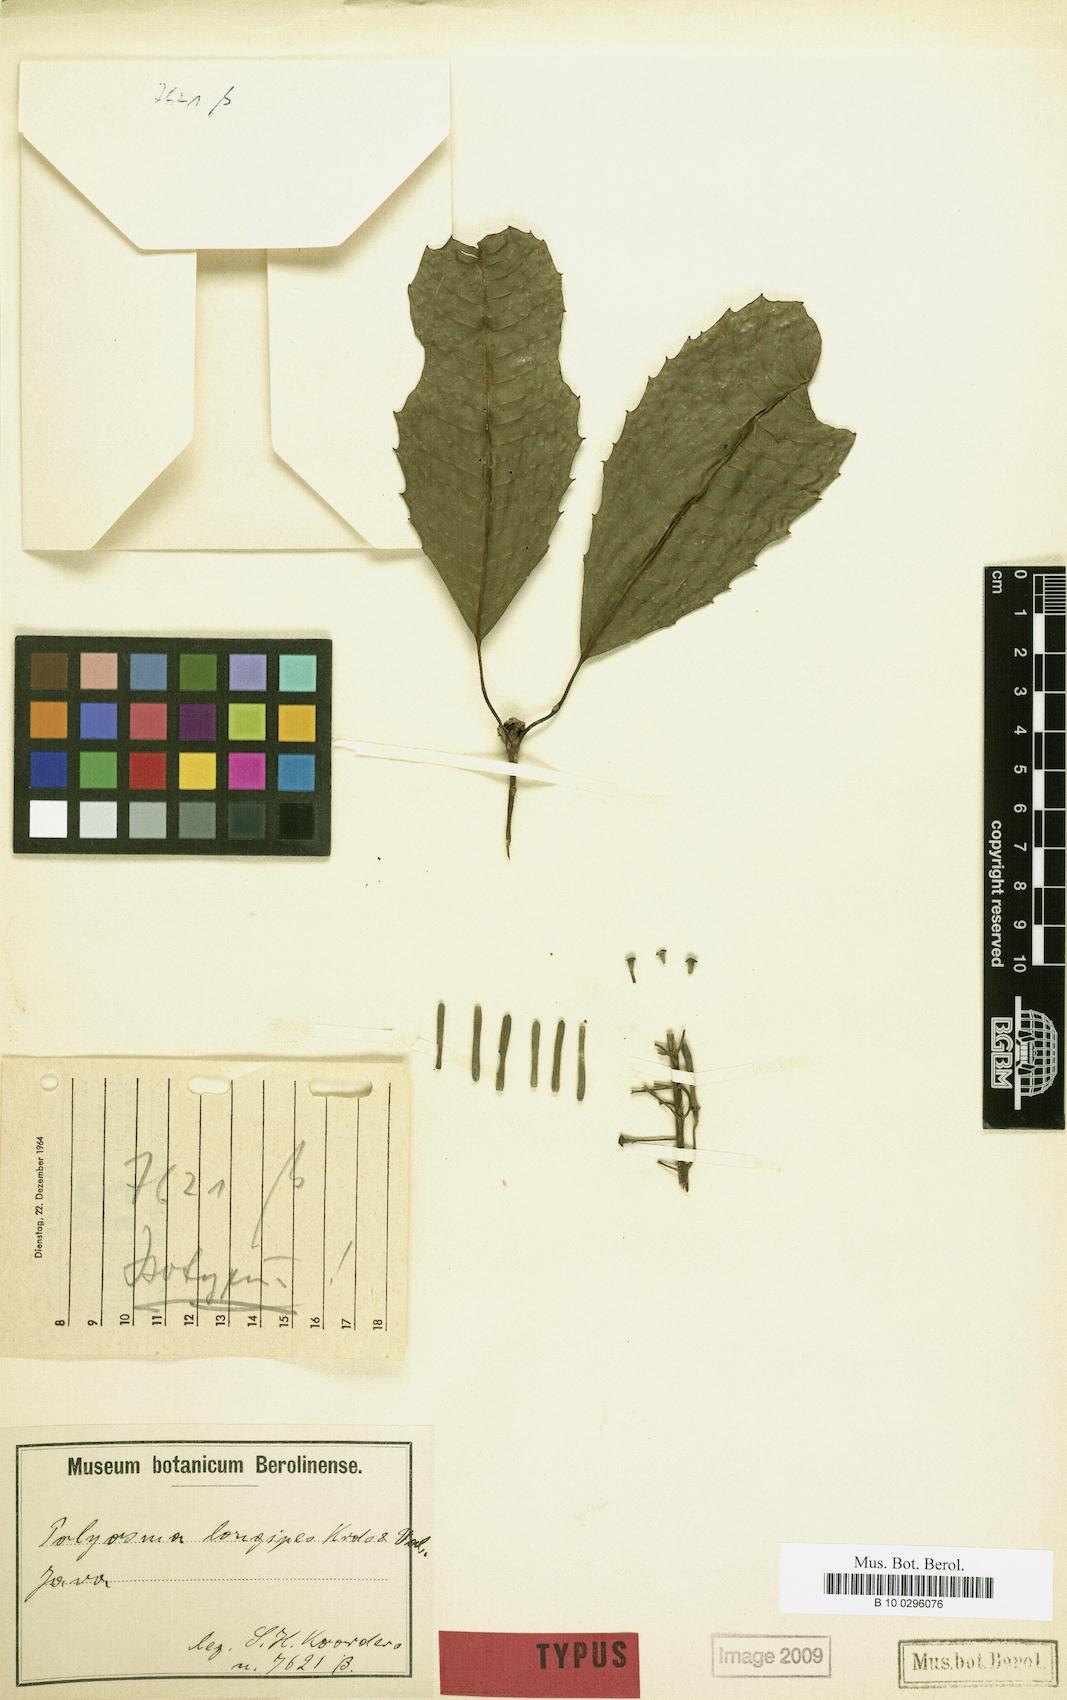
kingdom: Plantae
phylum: Tracheophyta
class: Magnoliopsida
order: Escalloniales
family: Escalloniaceae
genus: Polyosma
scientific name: Polyosma longepedicellata
